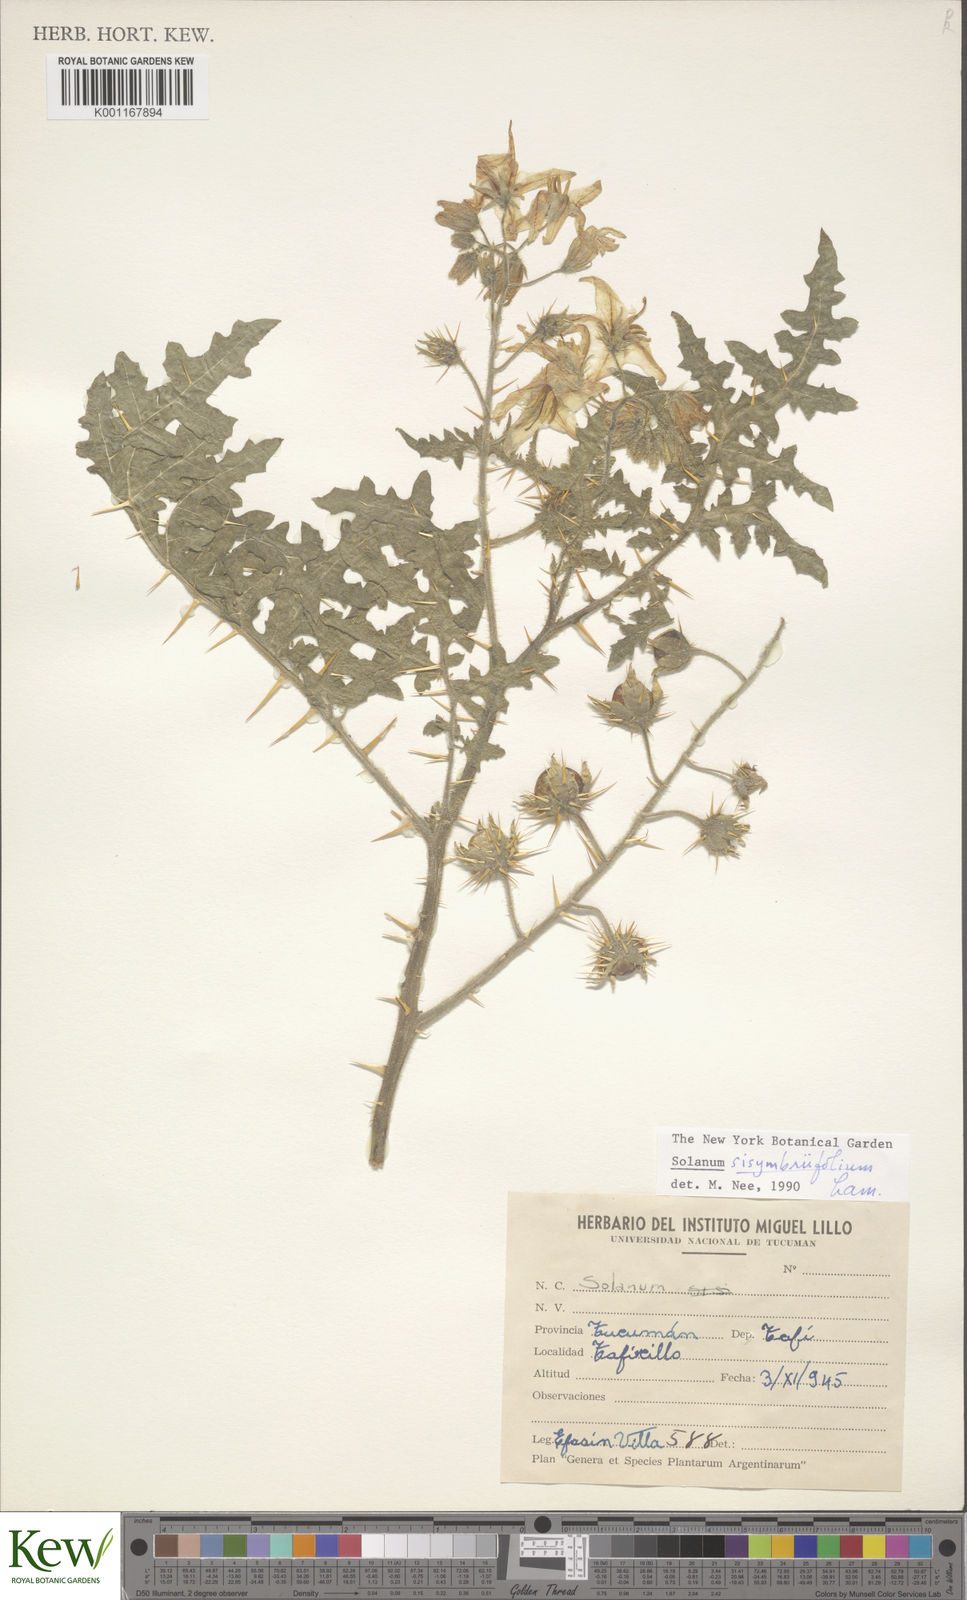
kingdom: Plantae
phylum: Tracheophyta
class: Magnoliopsida
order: Solanales
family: Solanaceae
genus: Solanum
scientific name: Solanum sisymbriifolium
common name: Red buffalo-bur
